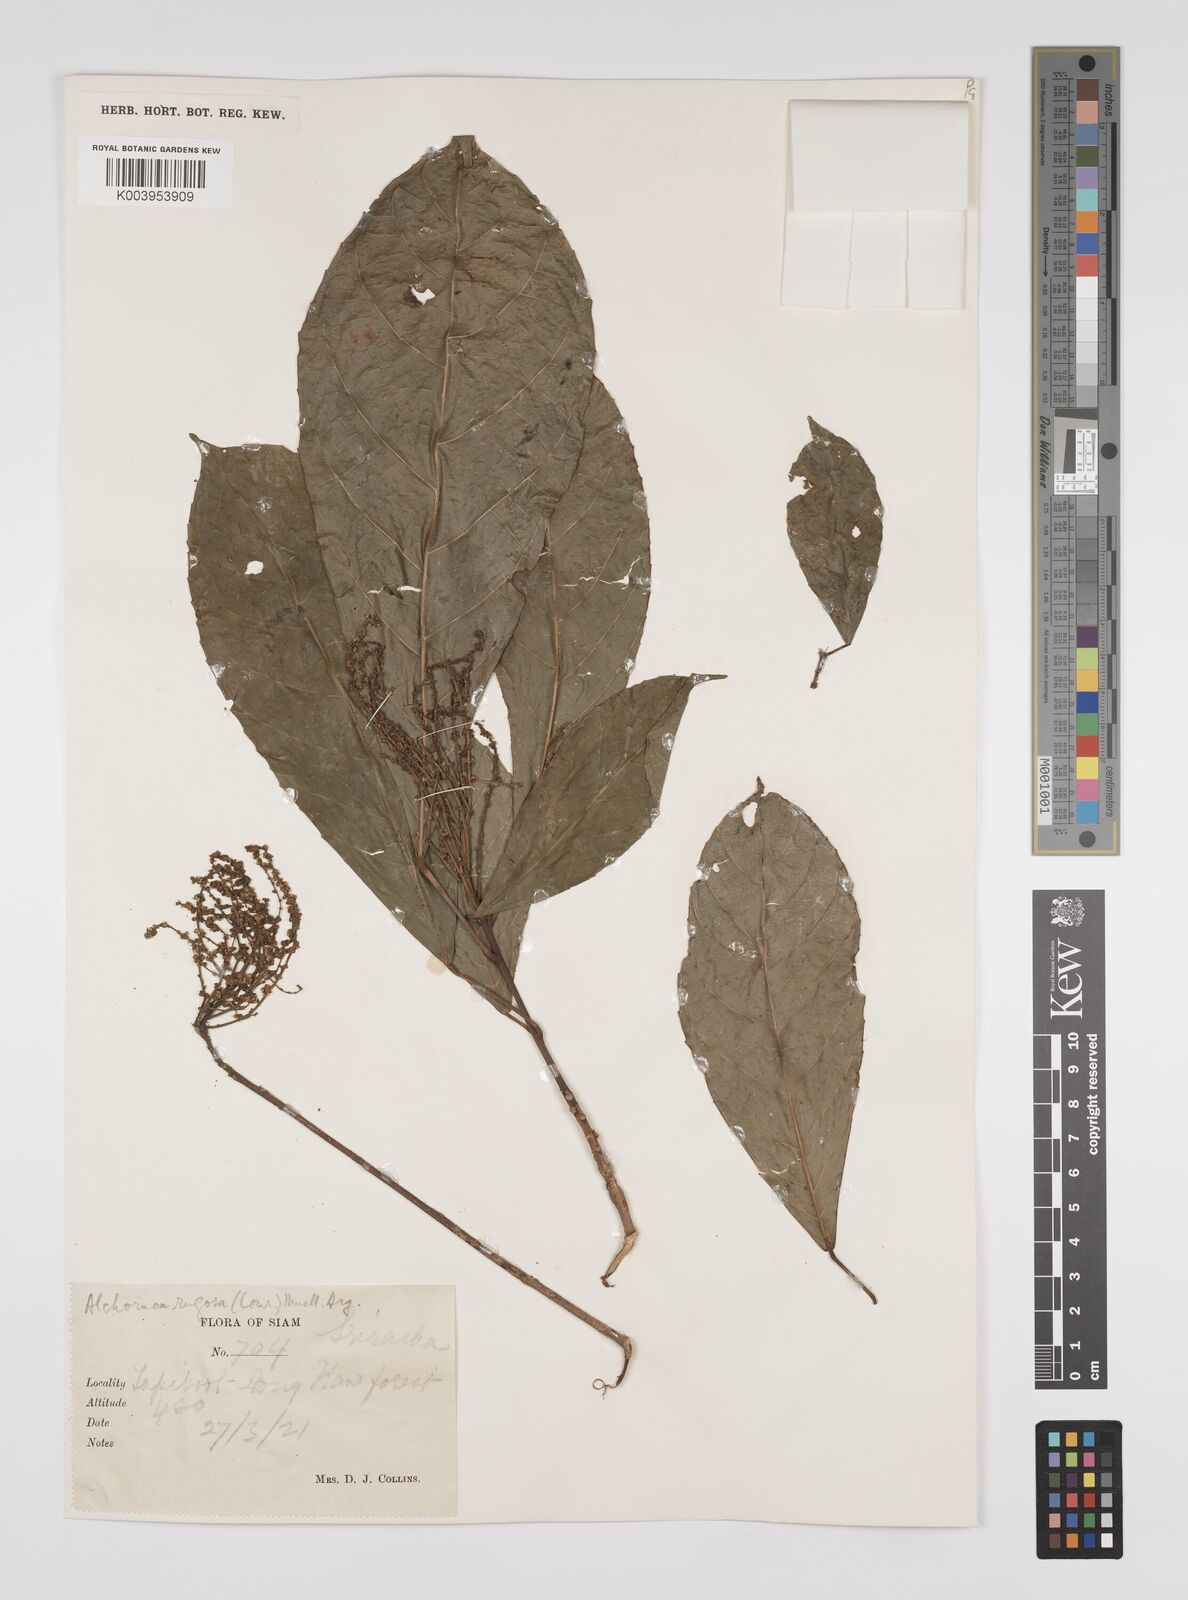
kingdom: Plantae
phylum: Tracheophyta
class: Magnoliopsida
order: Malpighiales
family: Euphorbiaceae
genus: Alchornea
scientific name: Alchornea rugosa
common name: Alchorntree
